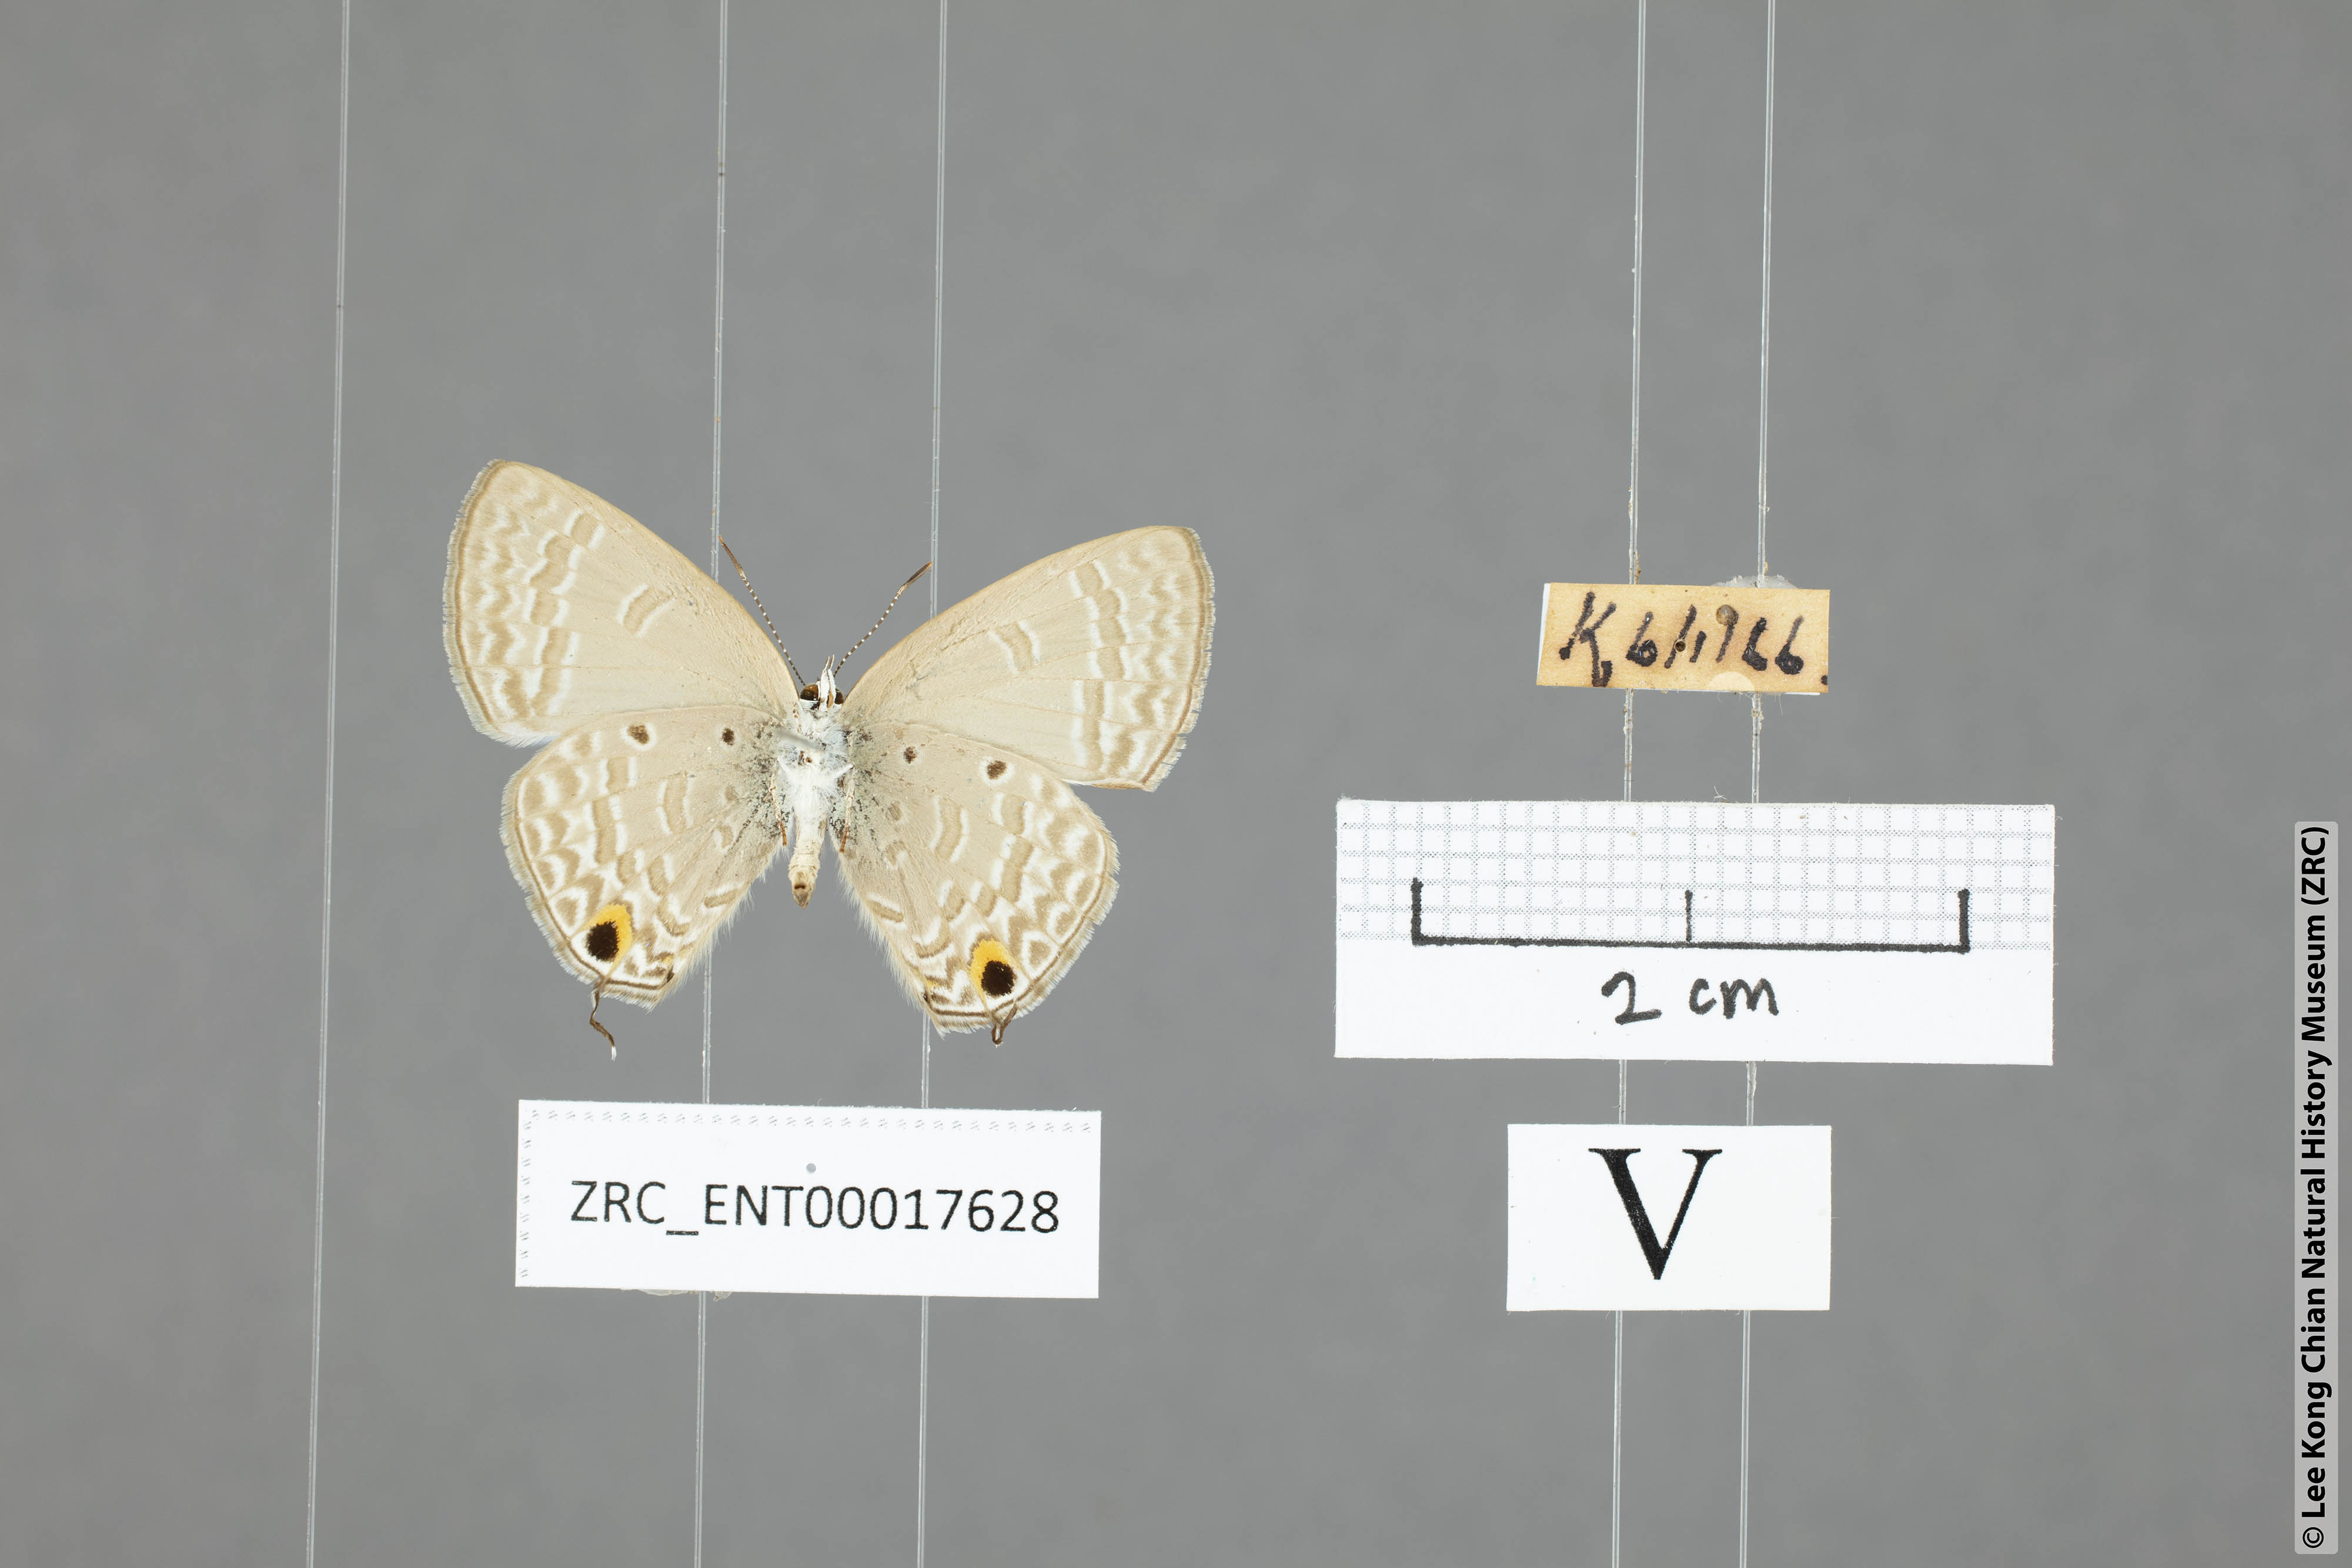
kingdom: Animalia
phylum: Arthropoda
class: Insecta
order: Lepidoptera
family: Lycaenidae
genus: Catochrysops
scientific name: Catochrysops panormus
